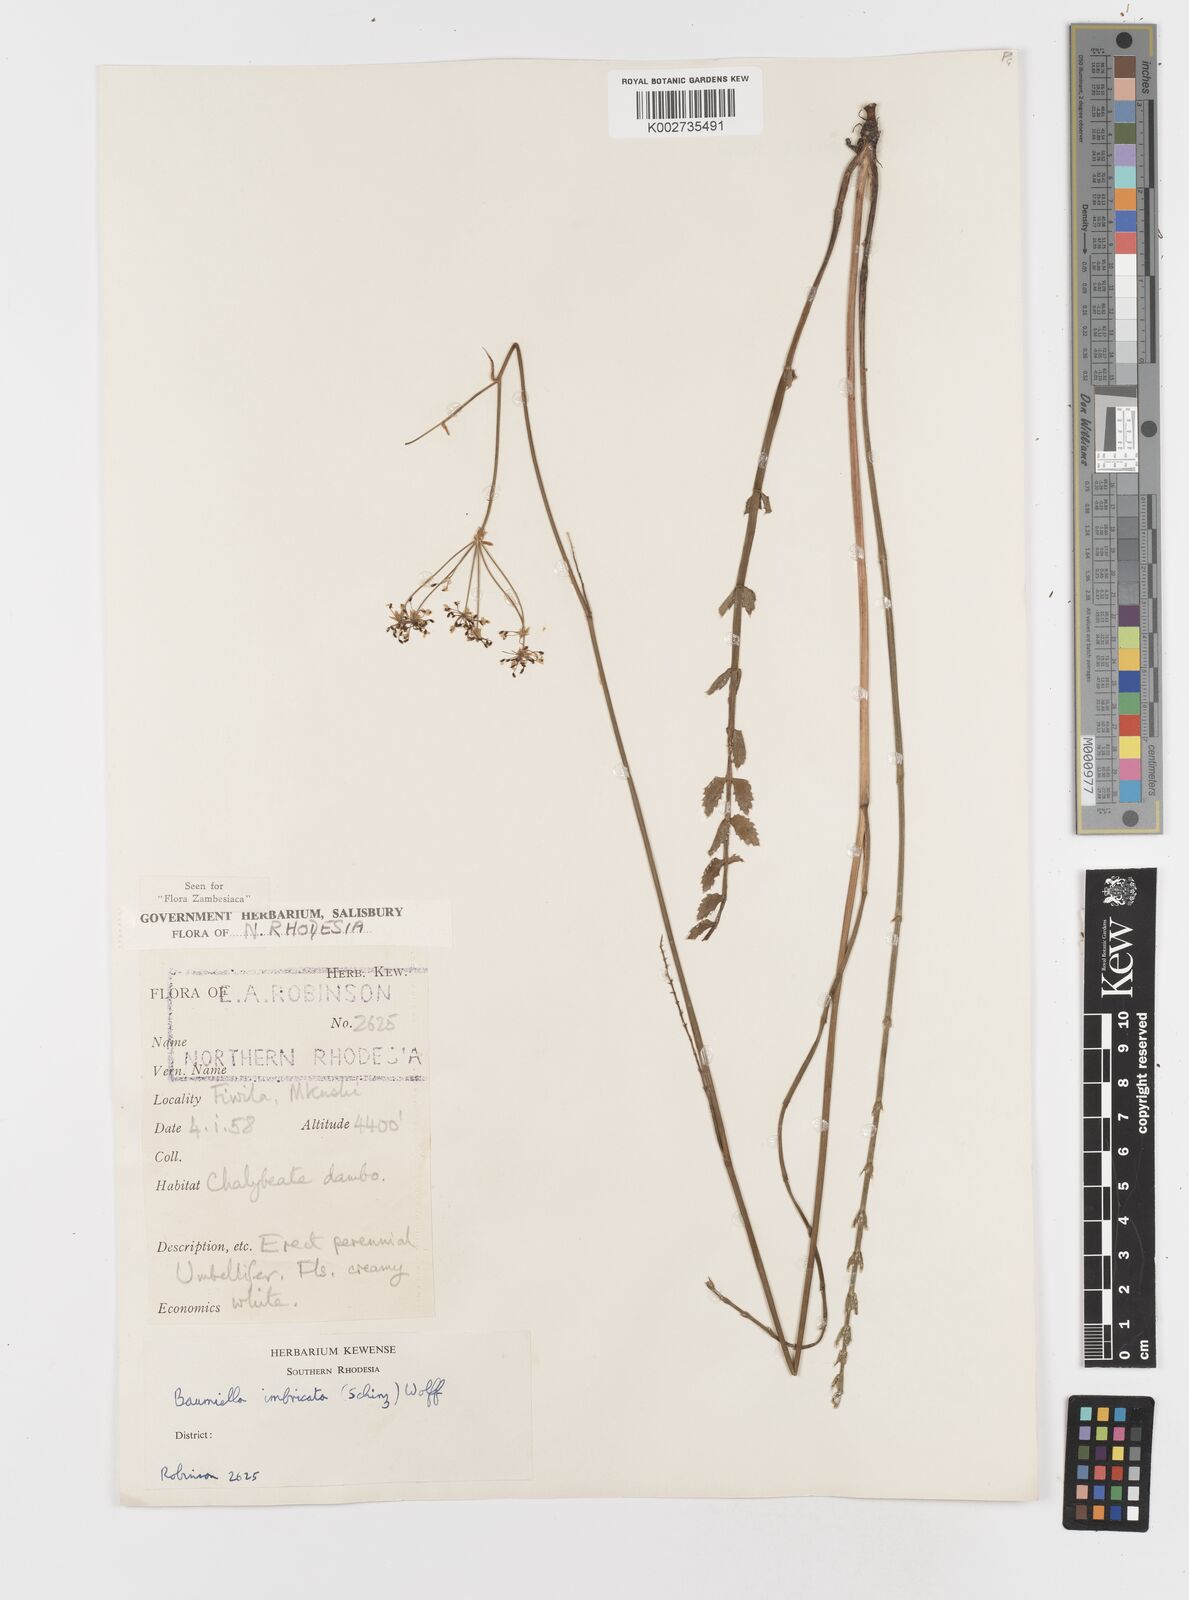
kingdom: Plantae
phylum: Tracheophyta
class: Magnoliopsida
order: Apiales
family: Apiaceae
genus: Berula
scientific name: Berula imbricata
